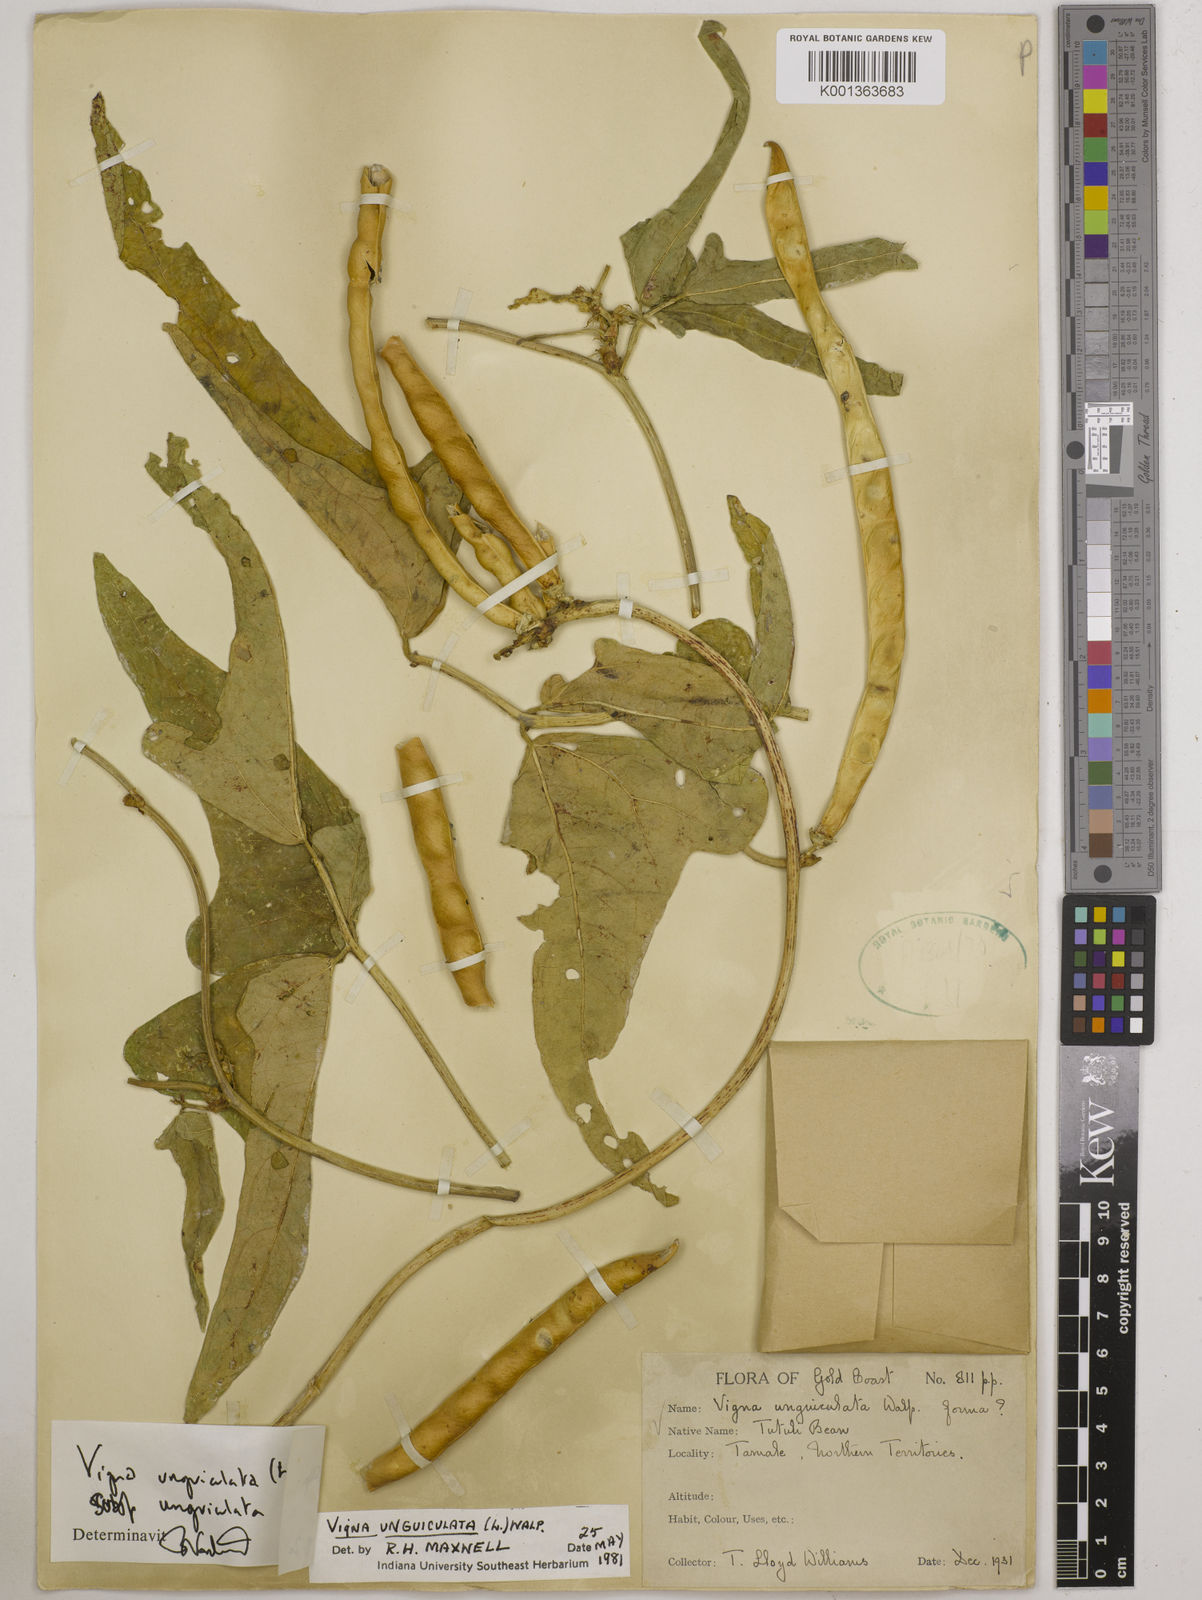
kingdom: Plantae
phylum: Tracheophyta
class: Magnoliopsida
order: Fabales
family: Fabaceae
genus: Vigna
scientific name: Vigna unguiculata
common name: Cowpea
